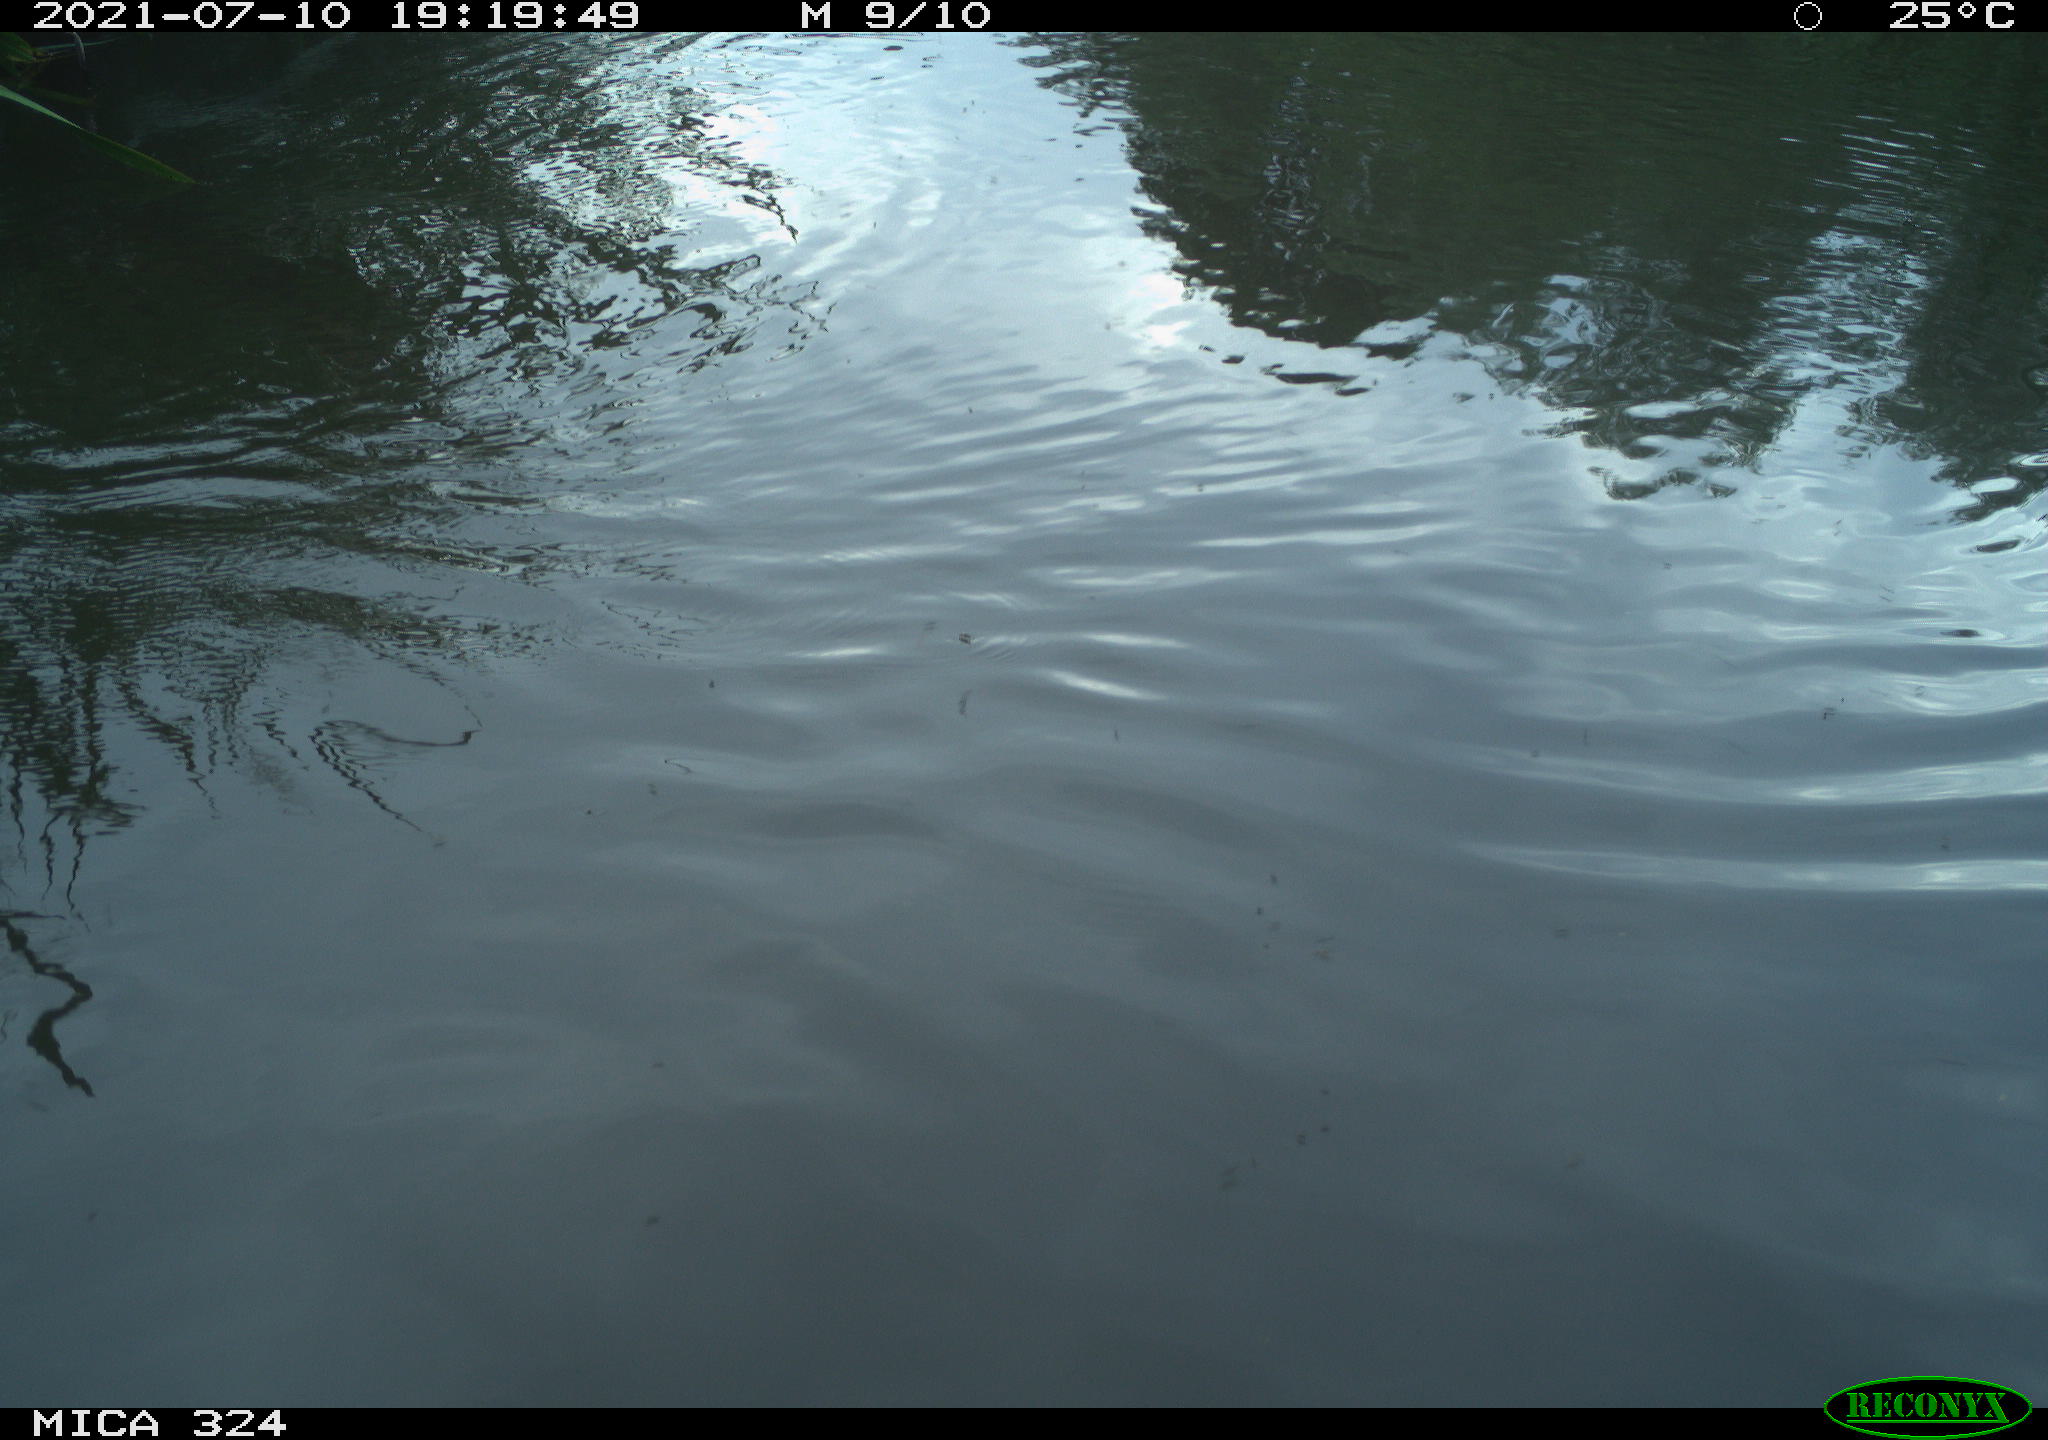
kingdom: Animalia
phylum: Chordata
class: Aves
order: Gruiformes
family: Rallidae
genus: Gallinula
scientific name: Gallinula chloropus
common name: Common moorhen
